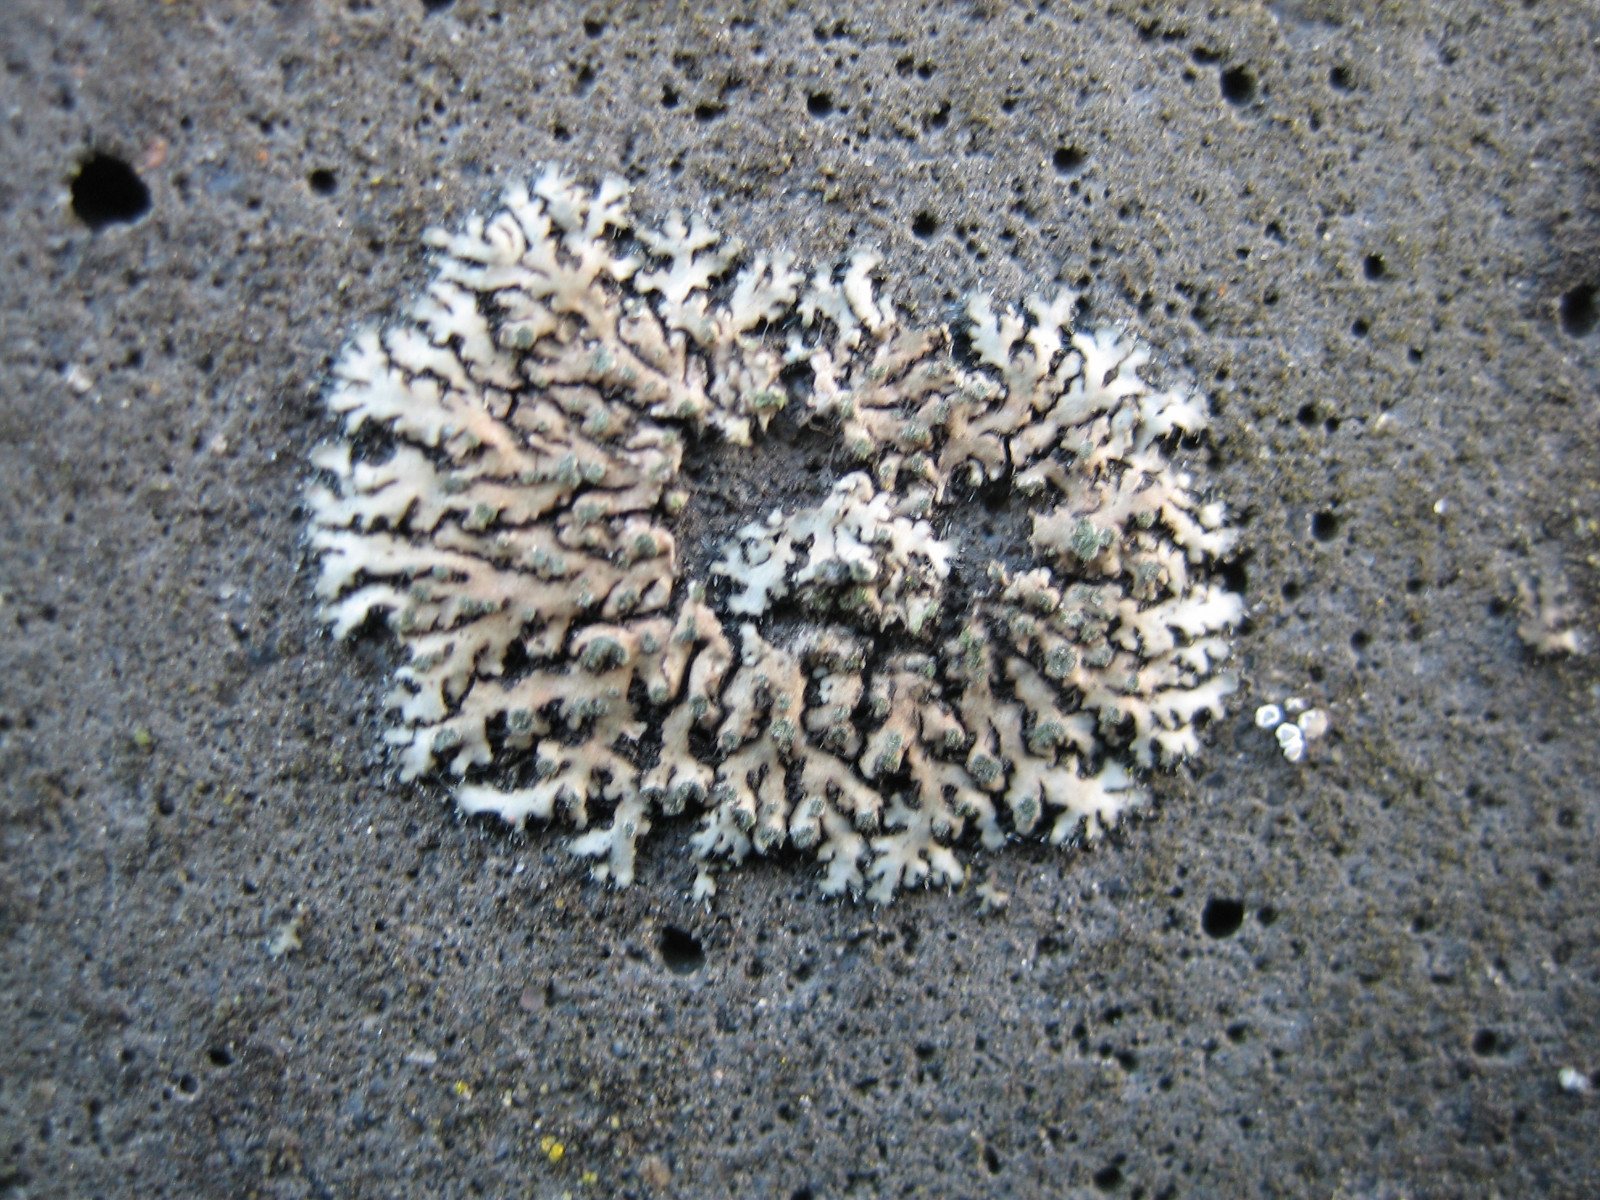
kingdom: Fungi
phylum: Ascomycota
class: Lecanoromycetes
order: Caliciales
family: Physciaceae
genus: Phaeophyscia
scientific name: Phaeophyscia orbicularis
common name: grågrøn rosetlav
